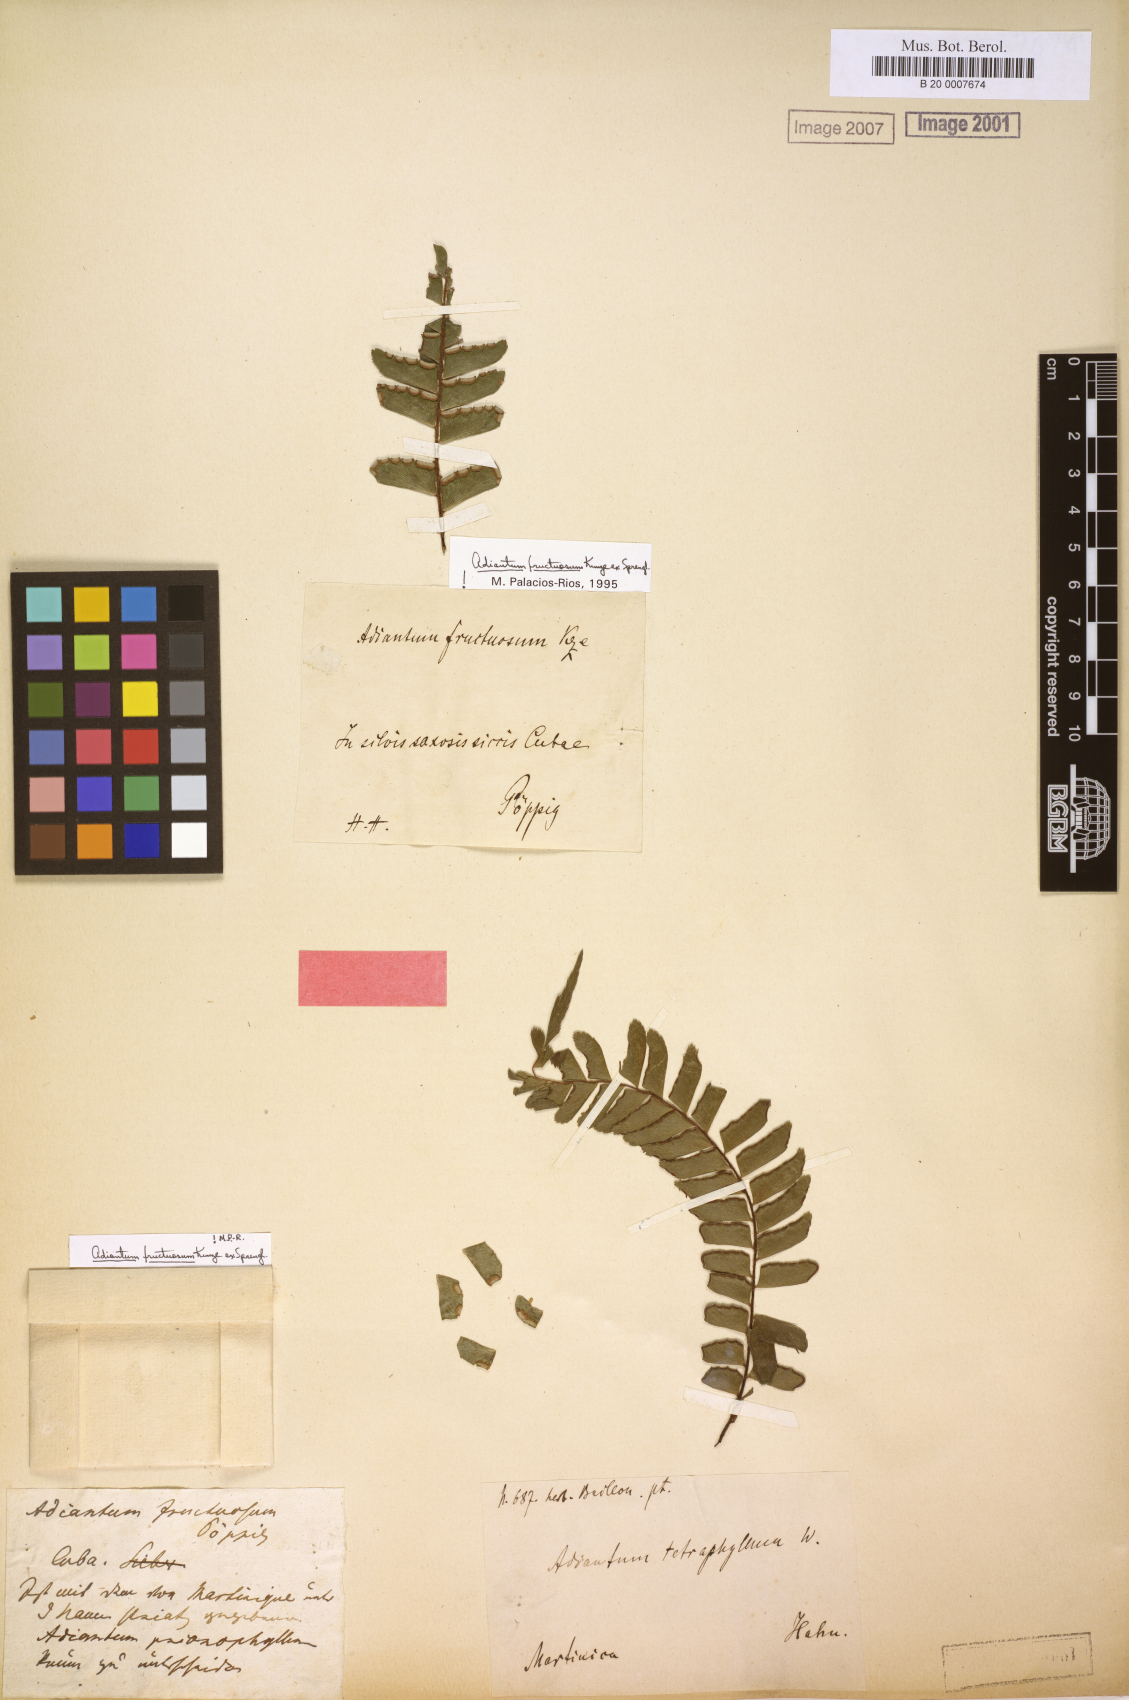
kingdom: Plantae
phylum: Tracheophyta
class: Polypodiopsida
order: Polypodiales
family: Pteridaceae
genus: Adiantum
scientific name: Adiantum tetraphyllum
